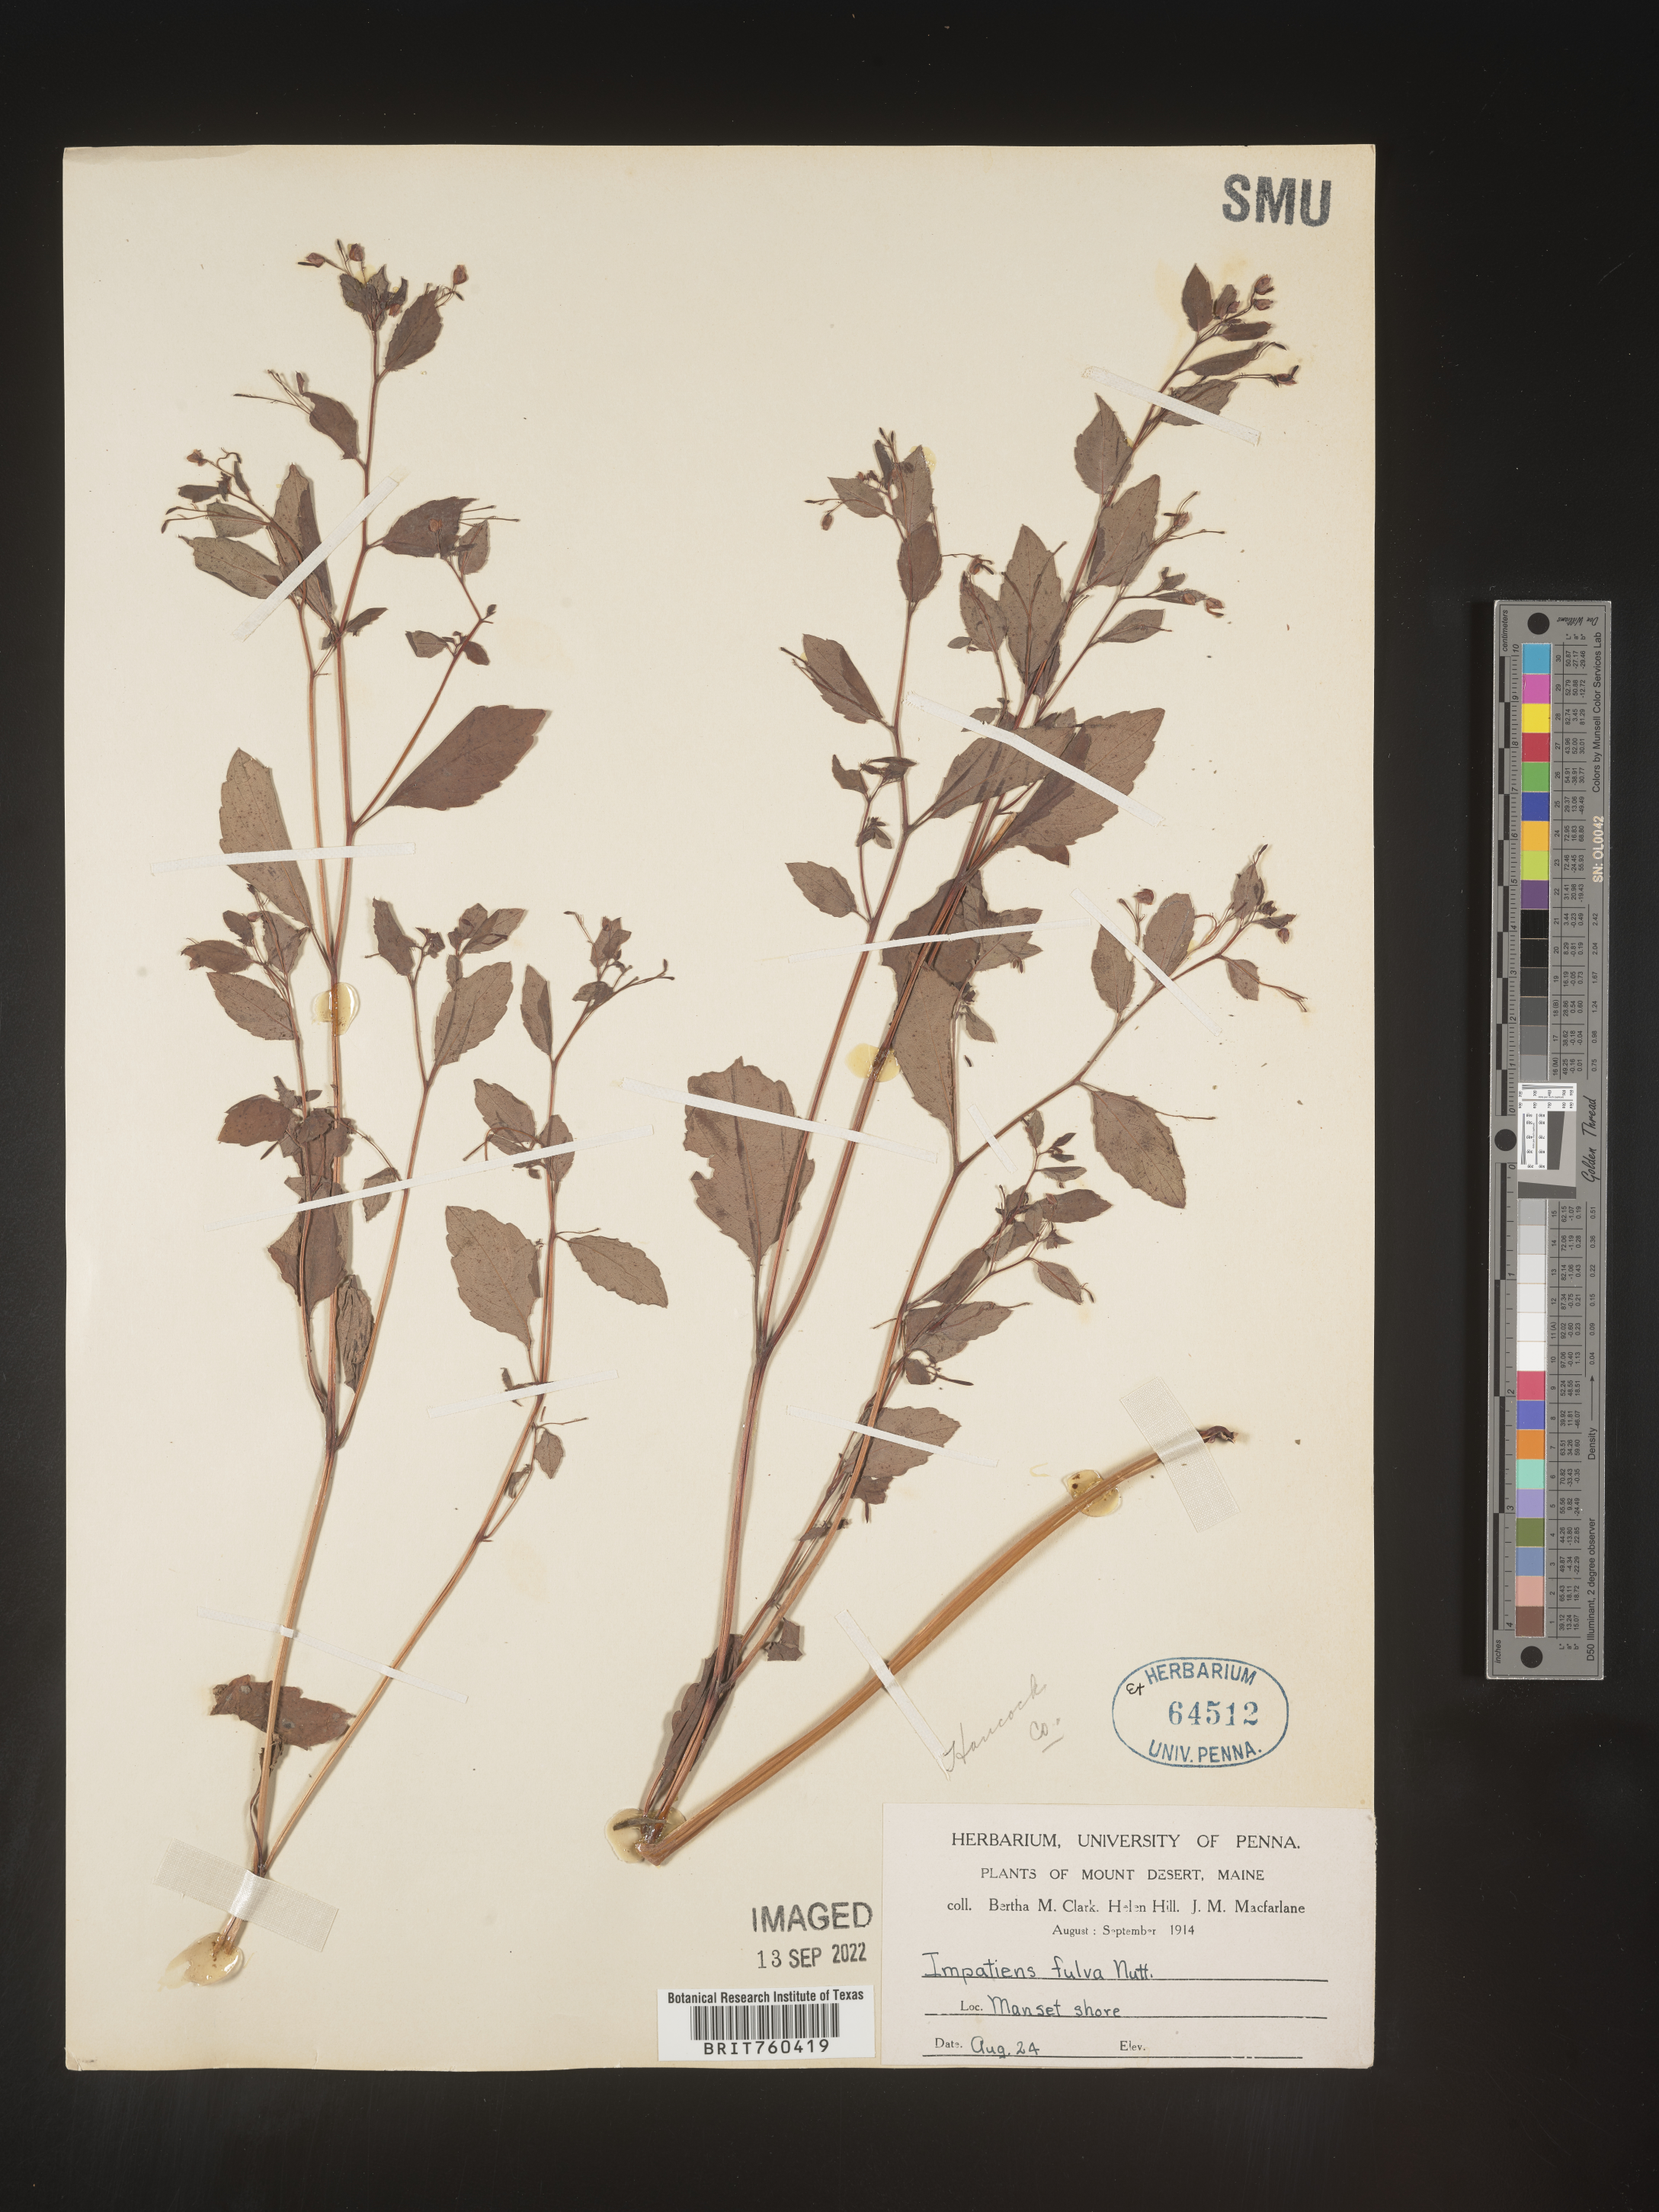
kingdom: Plantae
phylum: Tracheophyta
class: Magnoliopsida
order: Ericales
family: Balsaminaceae
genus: Impatiens
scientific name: Impatiens
